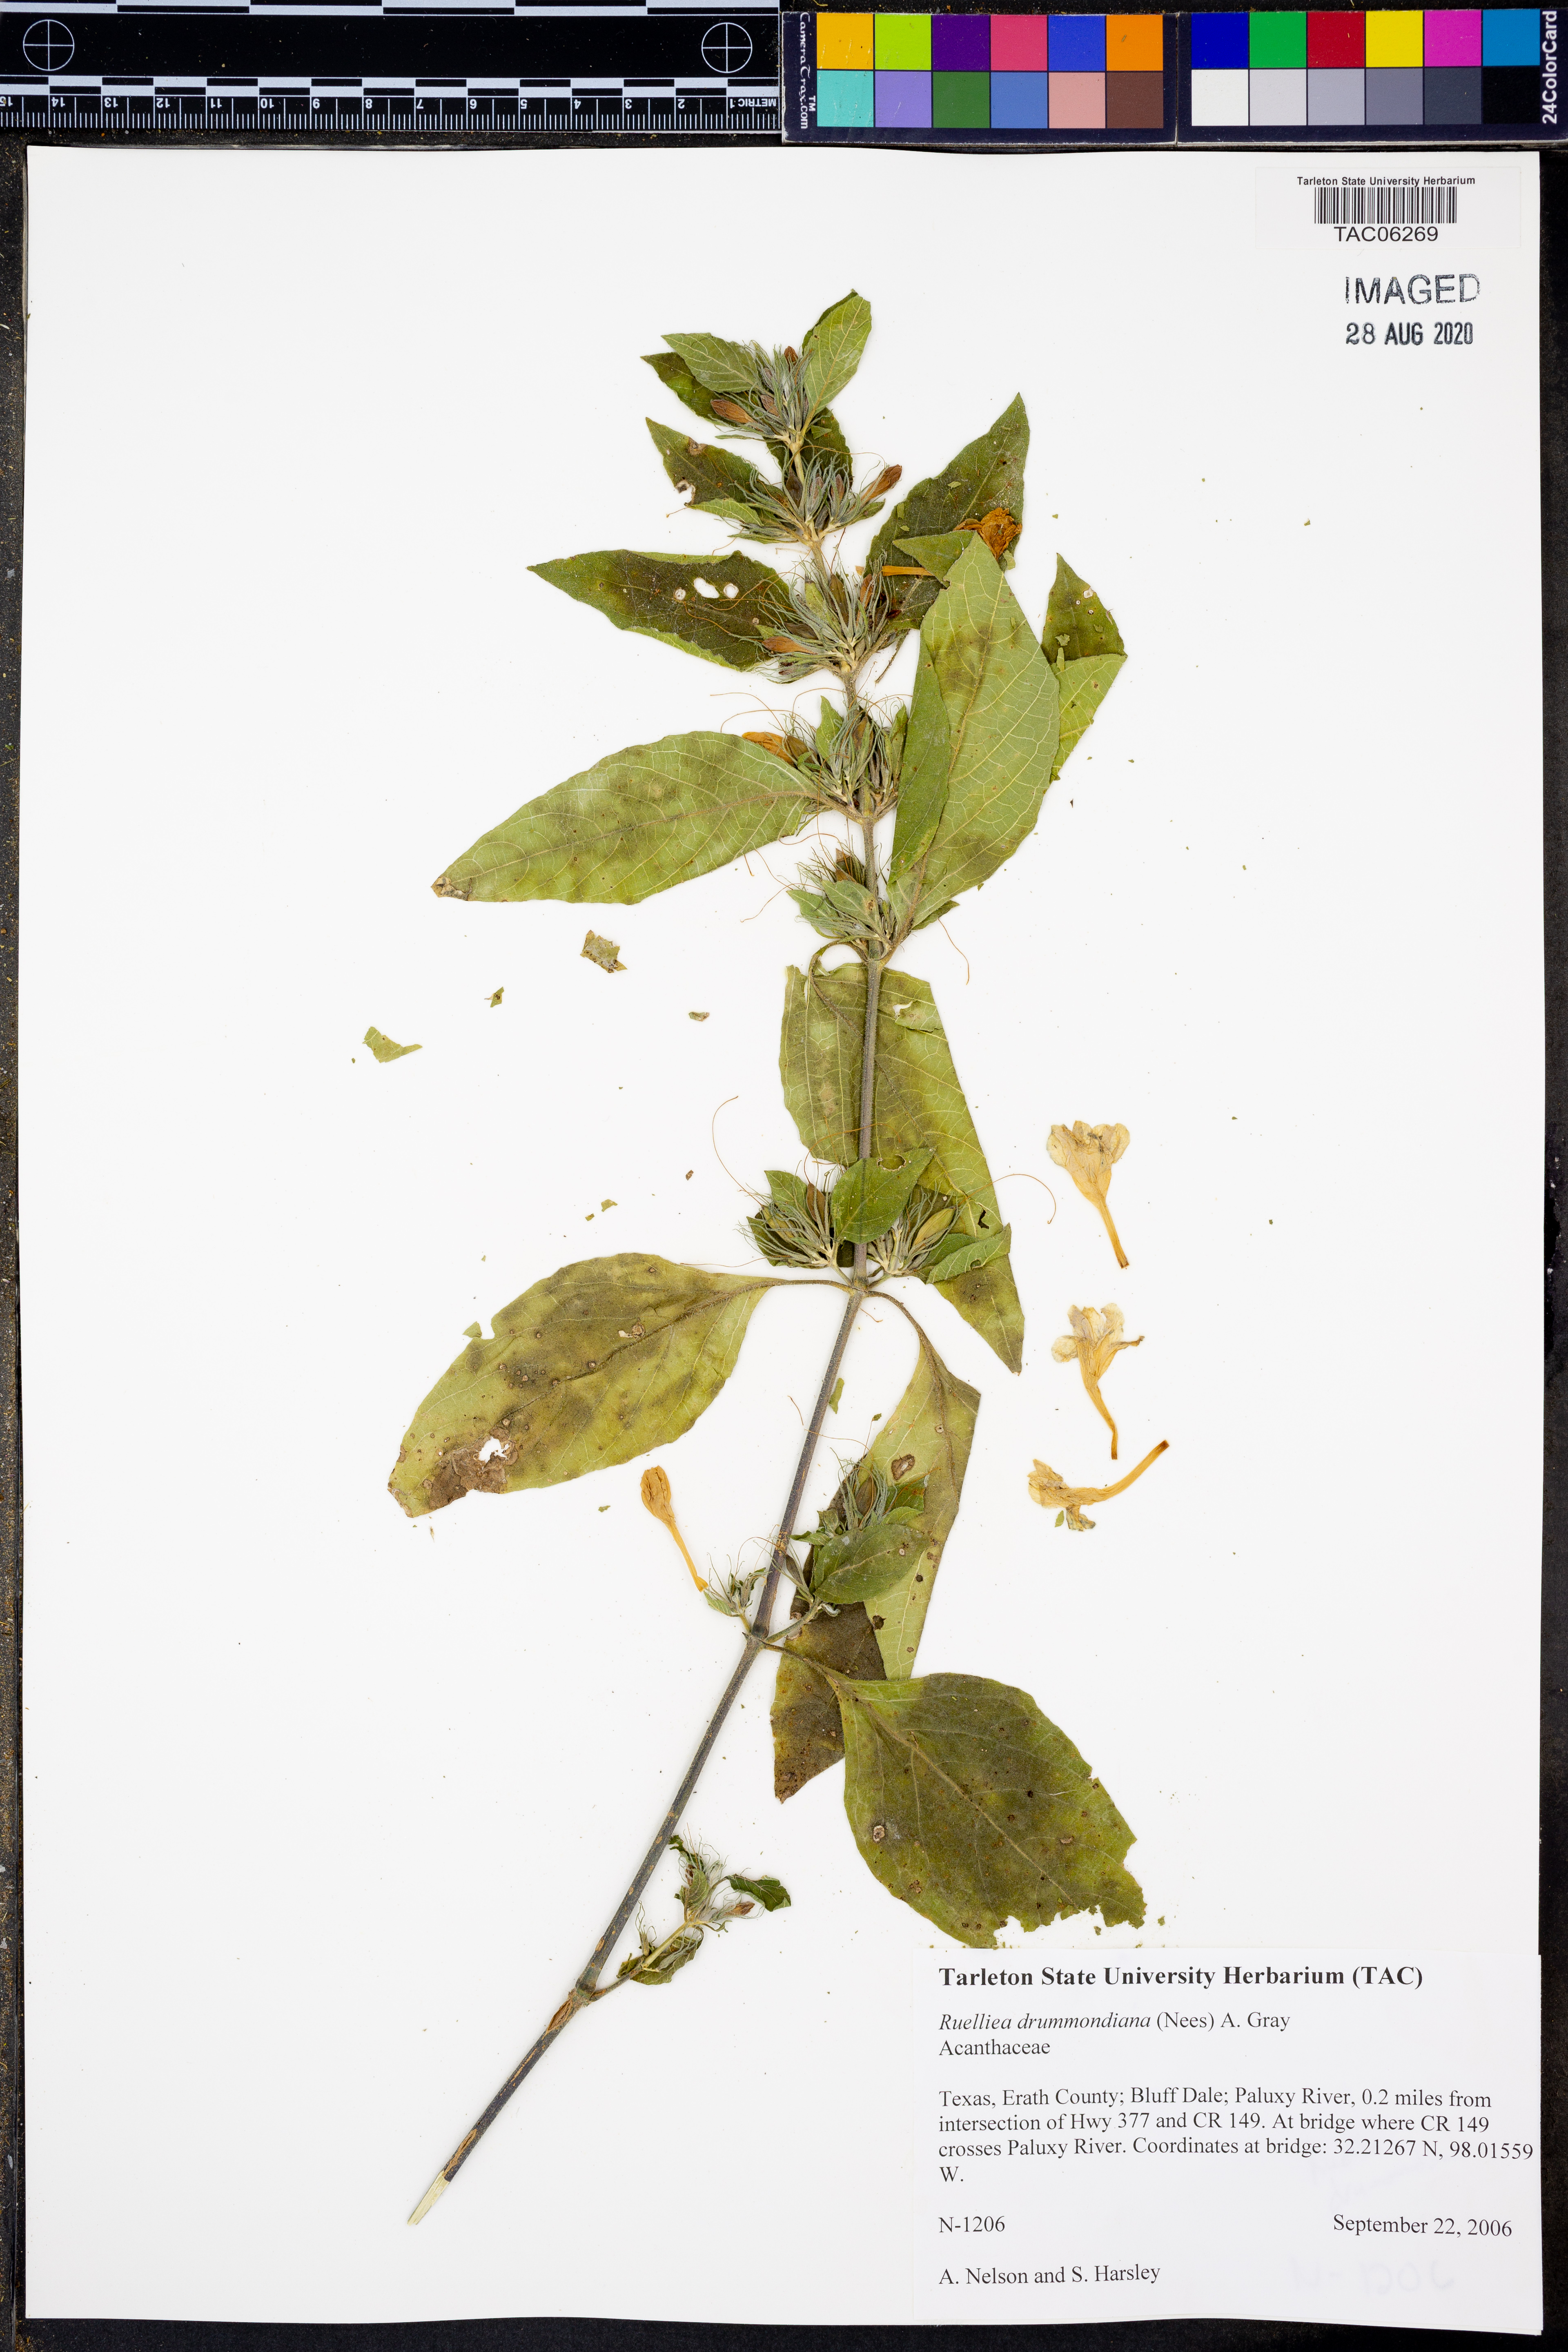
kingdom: Plantae
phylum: Tracheophyta
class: Magnoliopsida
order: Lamiales
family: Acanthaceae
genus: Ruellia
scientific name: Ruellia drummondiana
